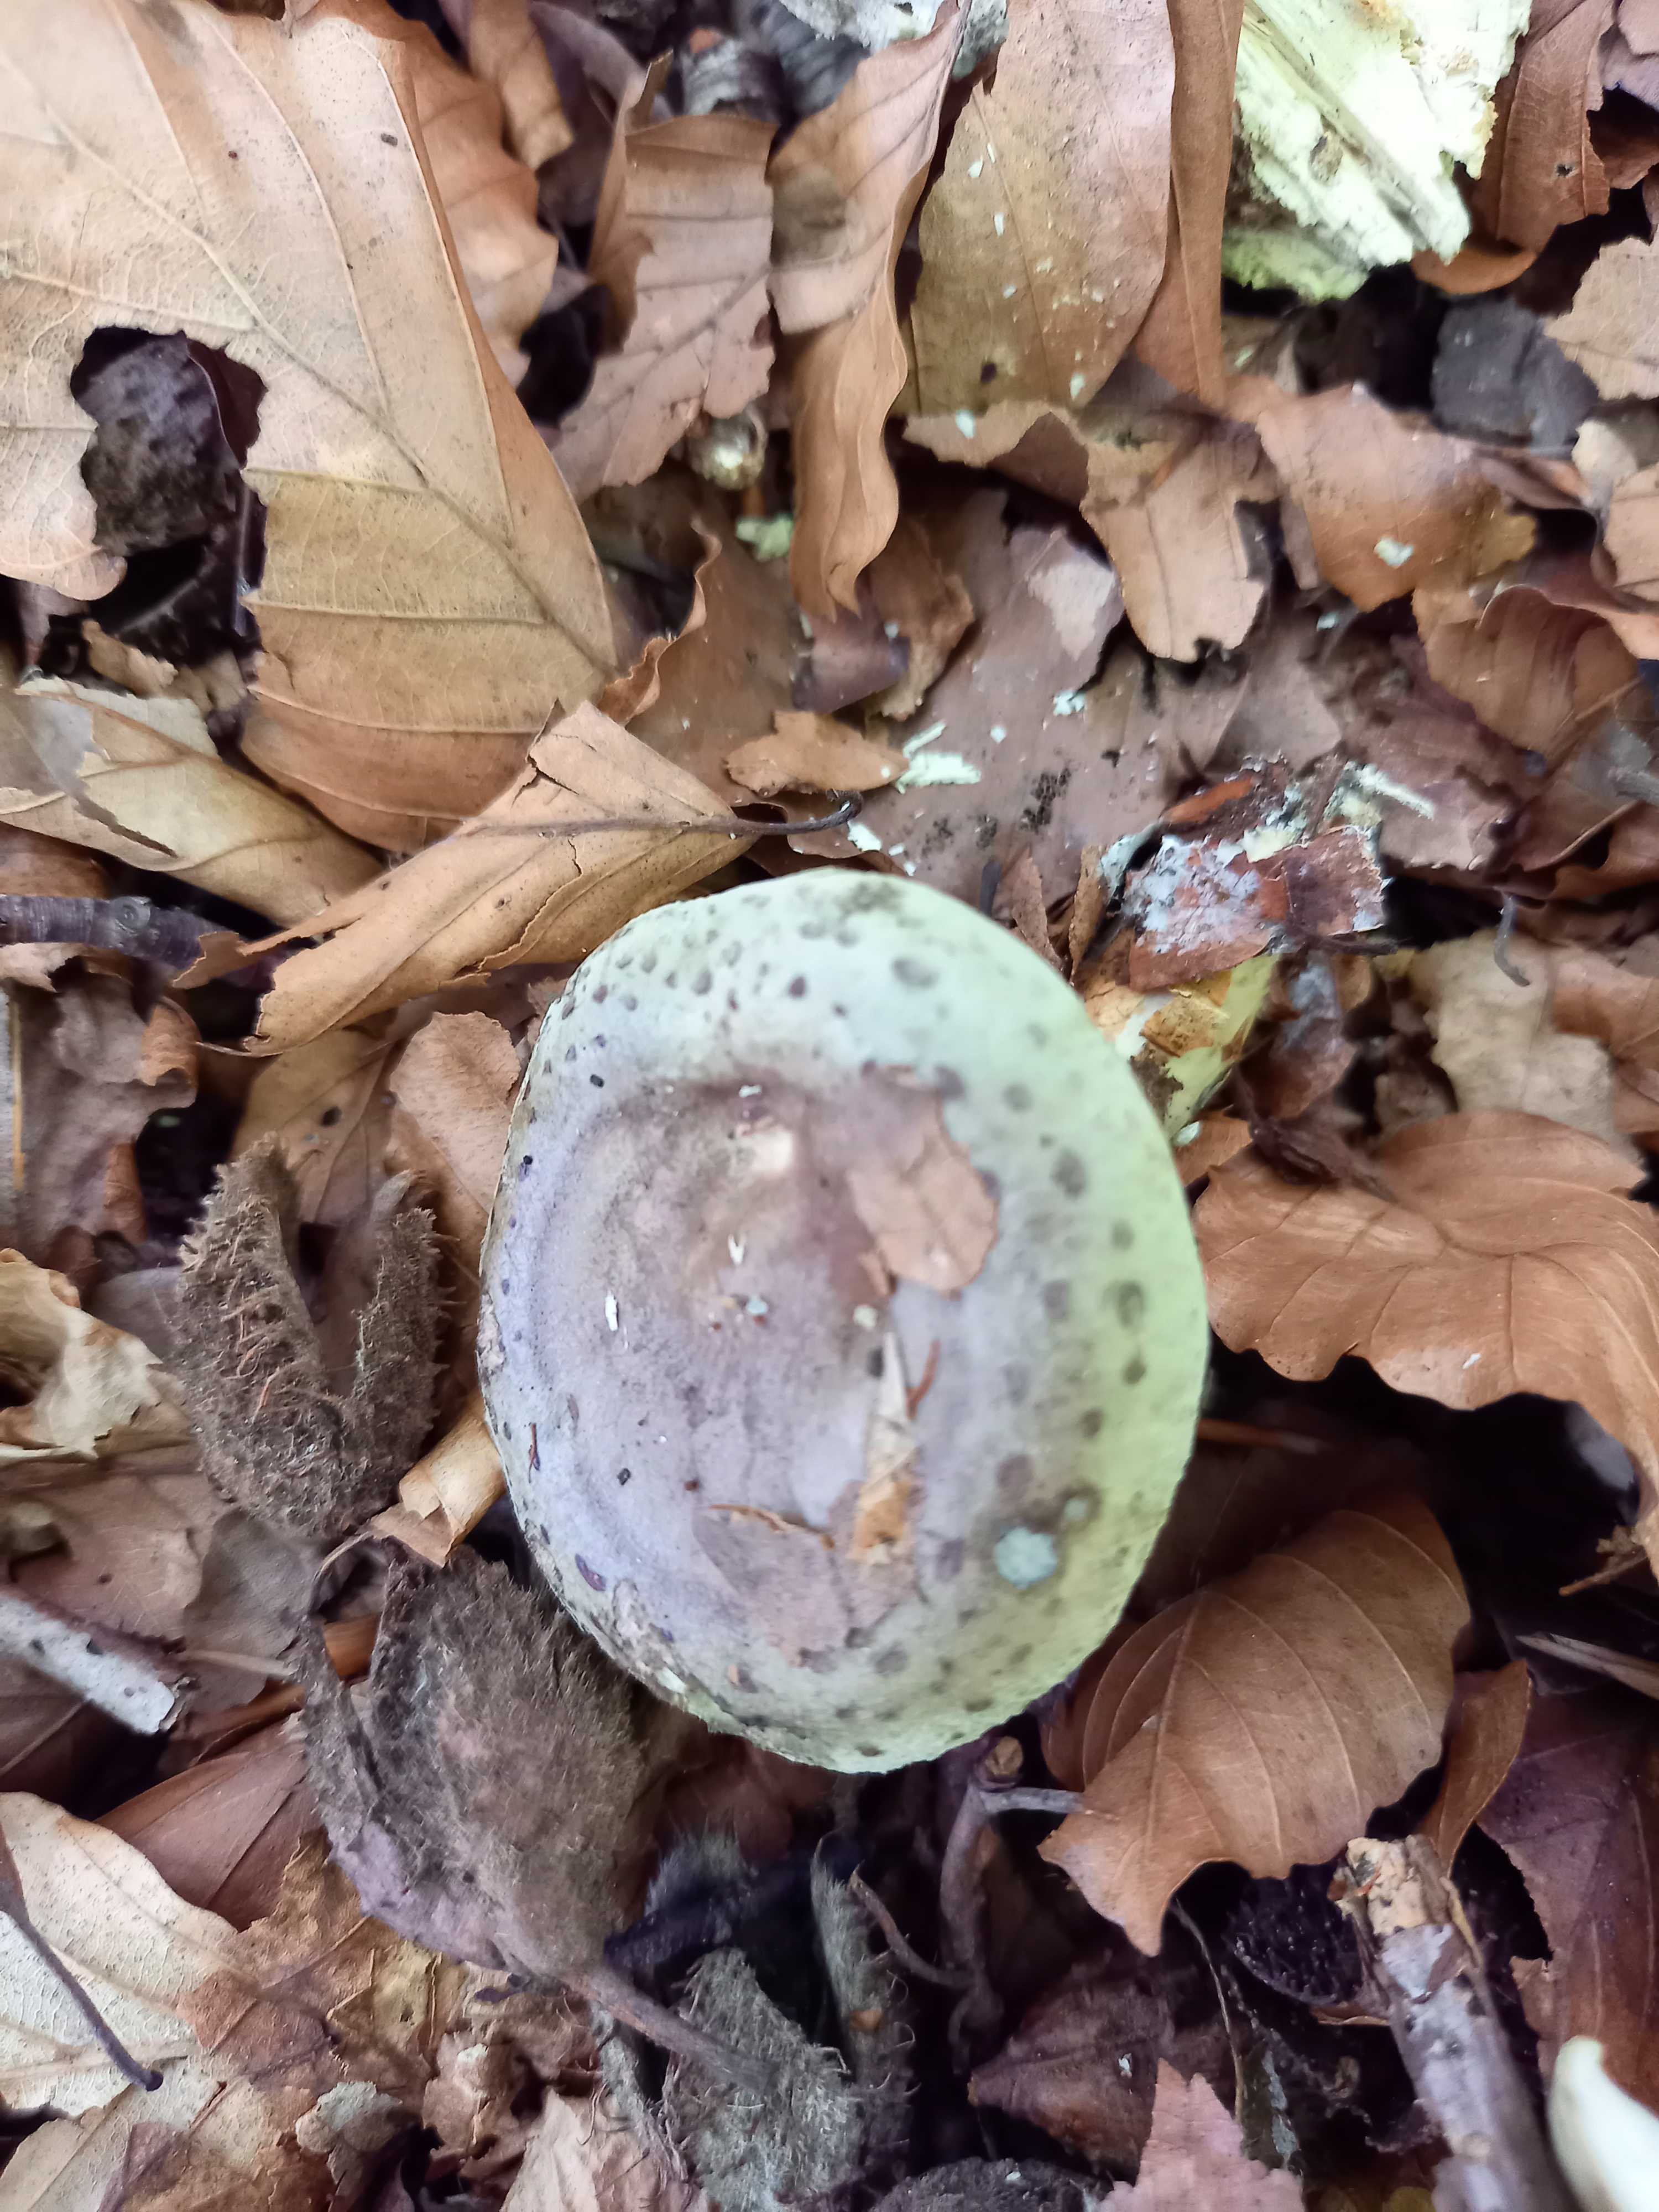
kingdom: Fungi
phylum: Basidiomycota
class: Agaricomycetes
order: Russulales
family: Russulaceae
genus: Lactarius
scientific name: Lactarius blennius
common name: dråbeplettet mælkehat
